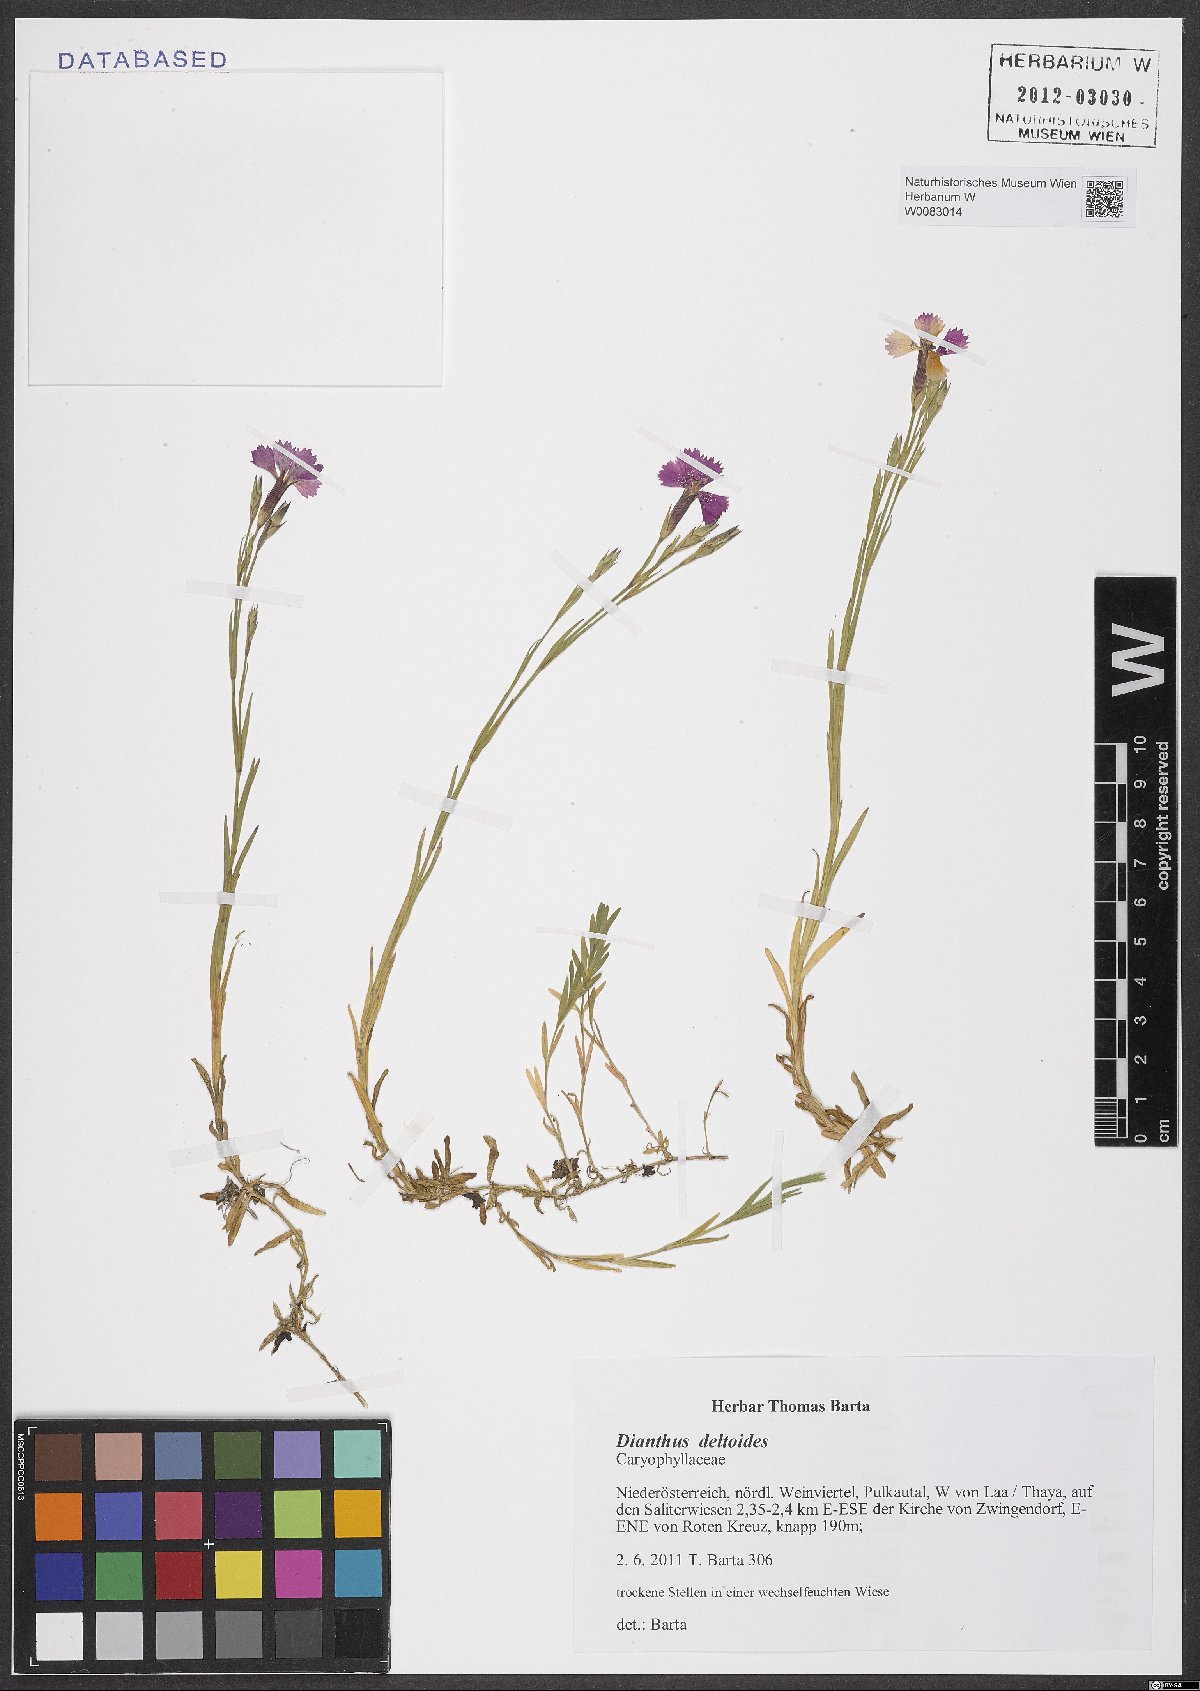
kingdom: Plantae
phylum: Tracheophyta
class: Magnoliopsida
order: Caryophyllales
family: Caryophyllaceae
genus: Dianthus
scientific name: Dianthus deltoides
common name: Maiden pink
